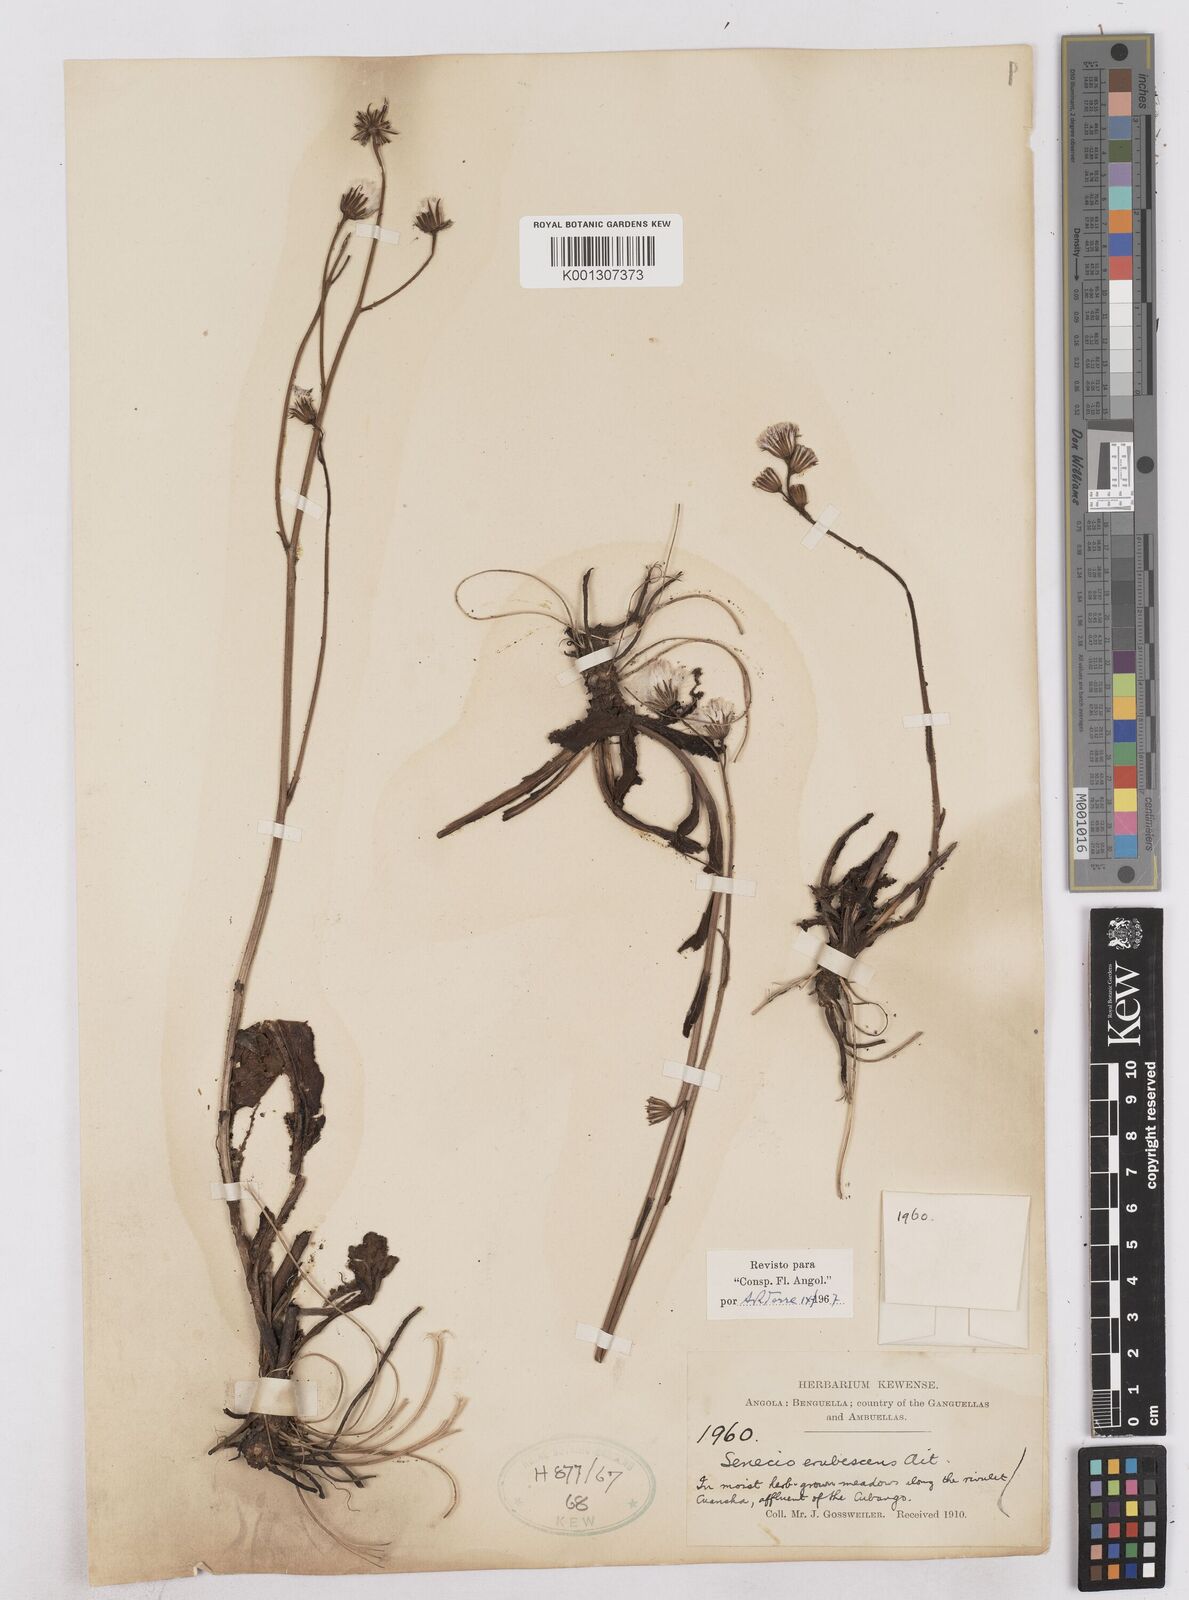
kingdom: Plantae
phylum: Tracheophyta
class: Magnoliopsida
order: Asterales
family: Asteraceae
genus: Senecio
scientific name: Senecio erubescens
